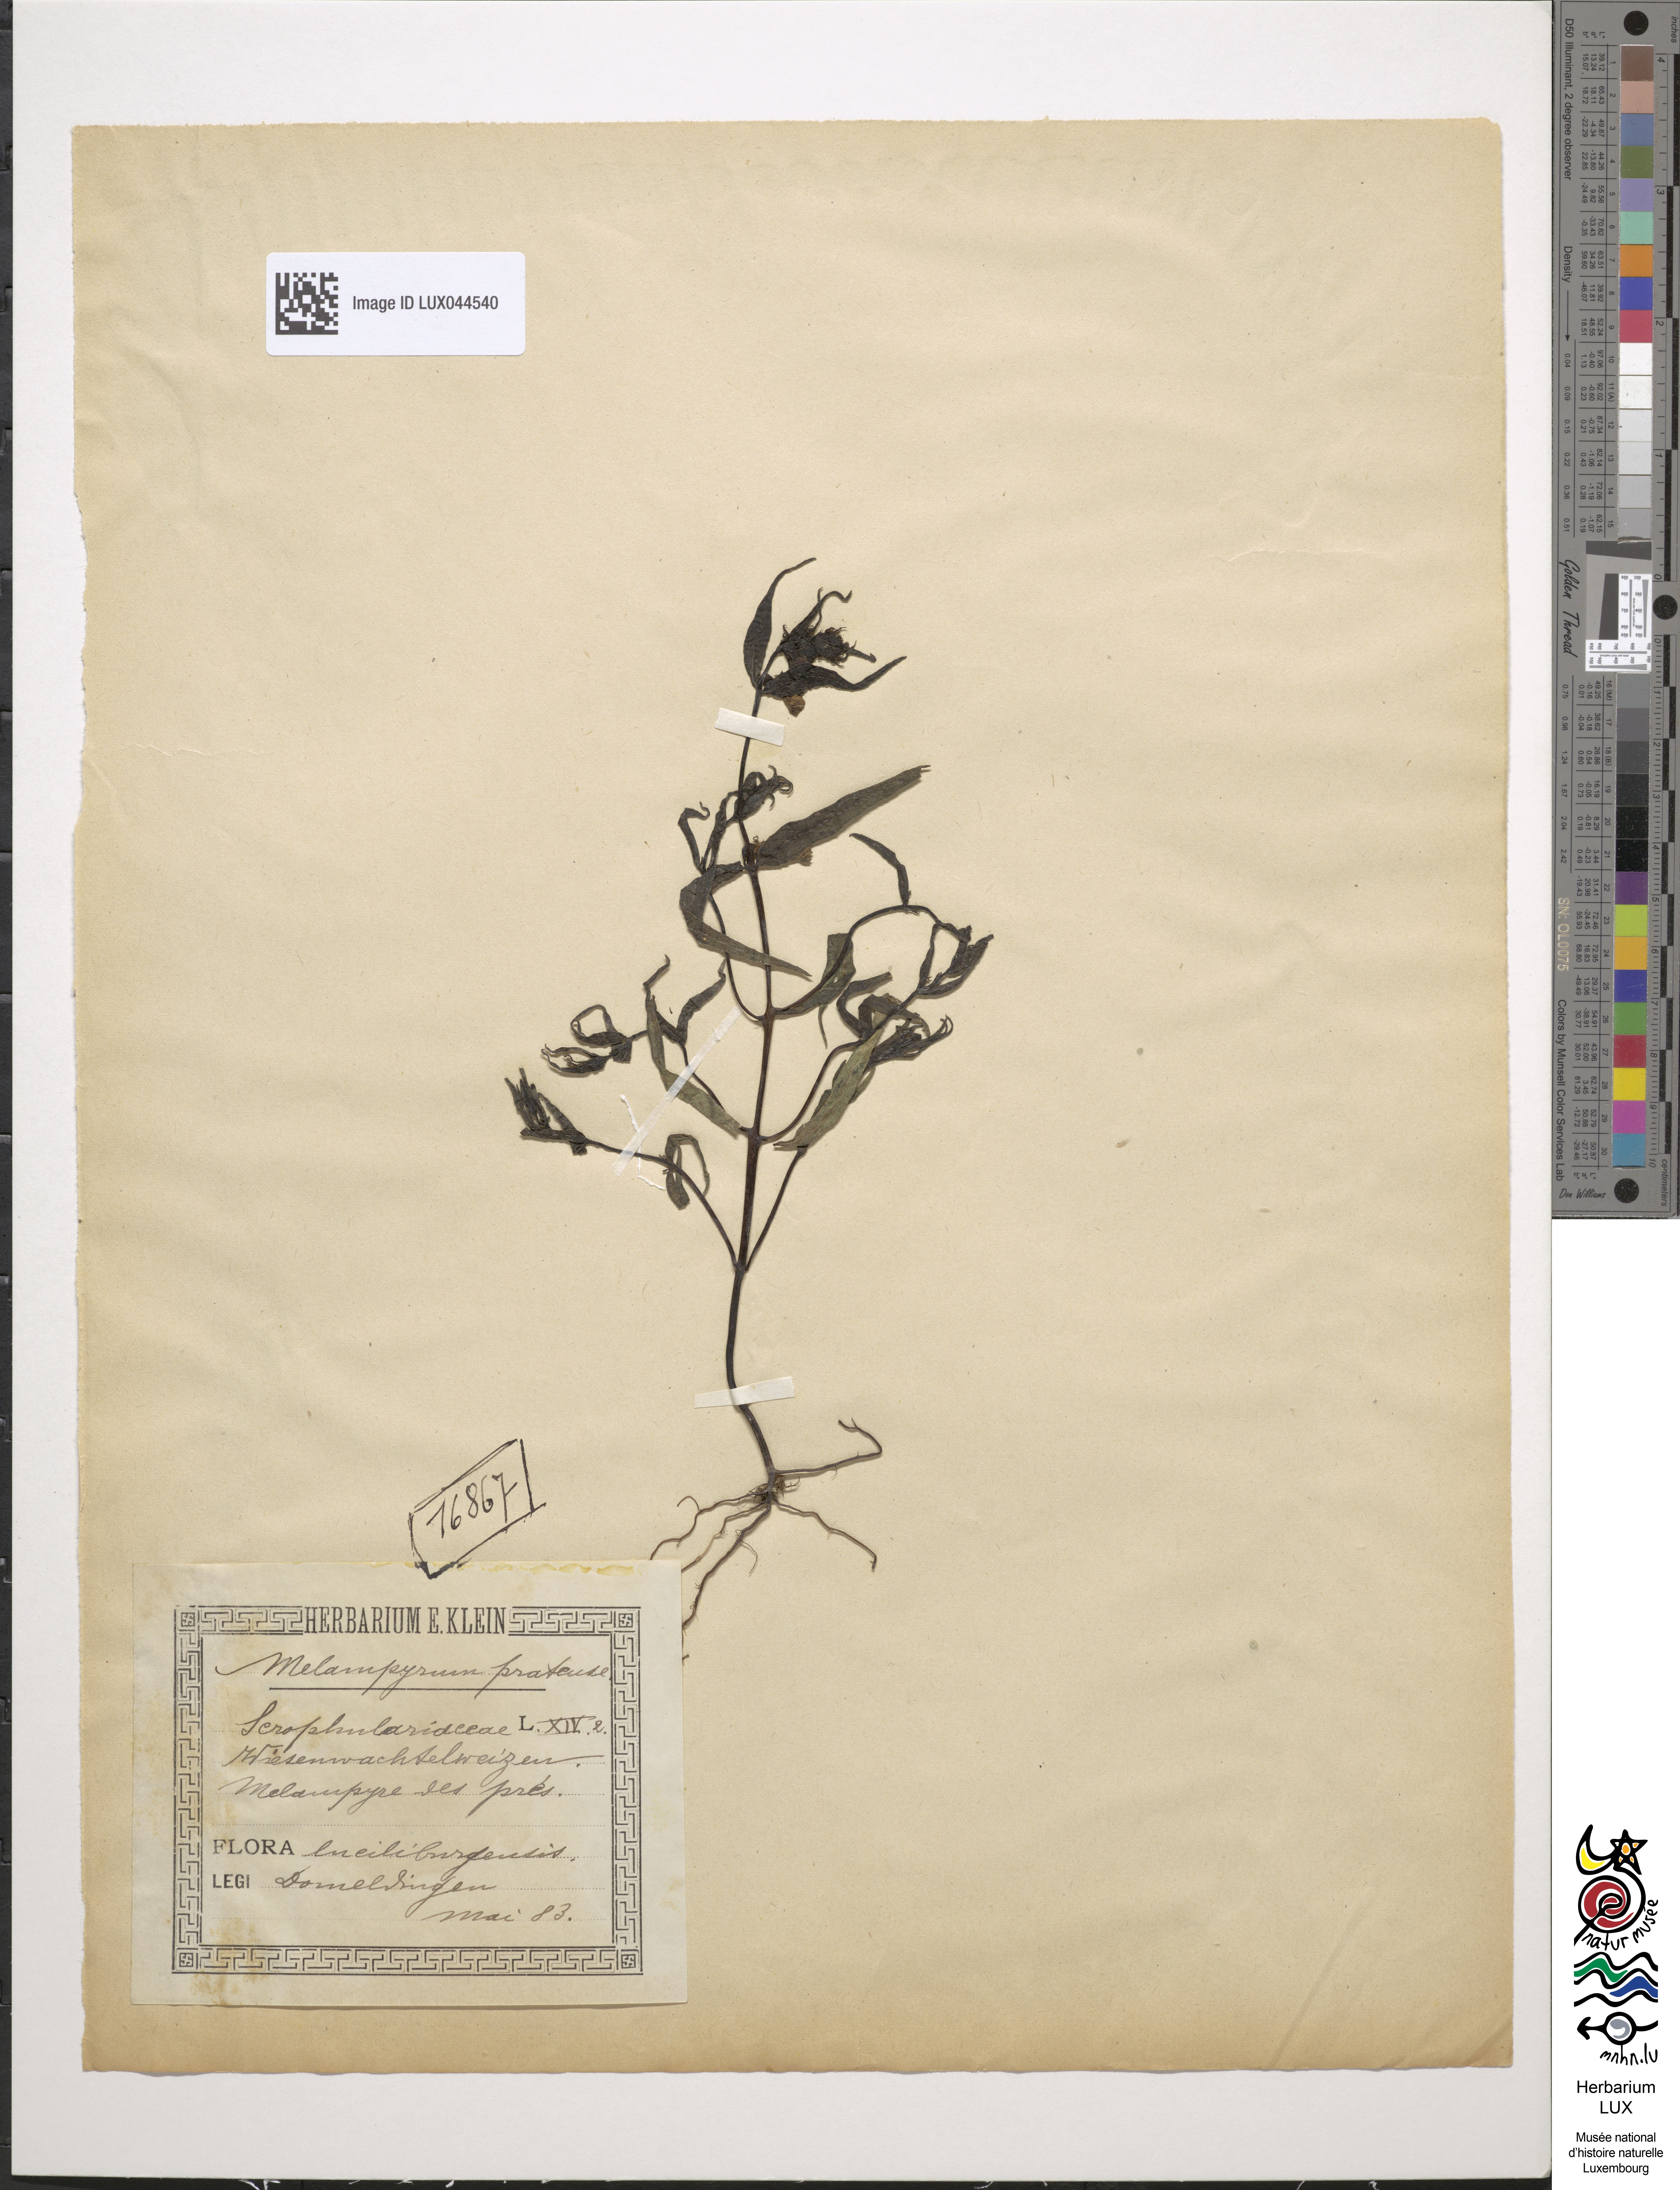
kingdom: Plantae
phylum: Tracheophyta
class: Magnoliopsida
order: Lamiales
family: Orobanchaceae
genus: Melampyrum
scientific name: Melampyrum pratense
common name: Common cow-wheat
